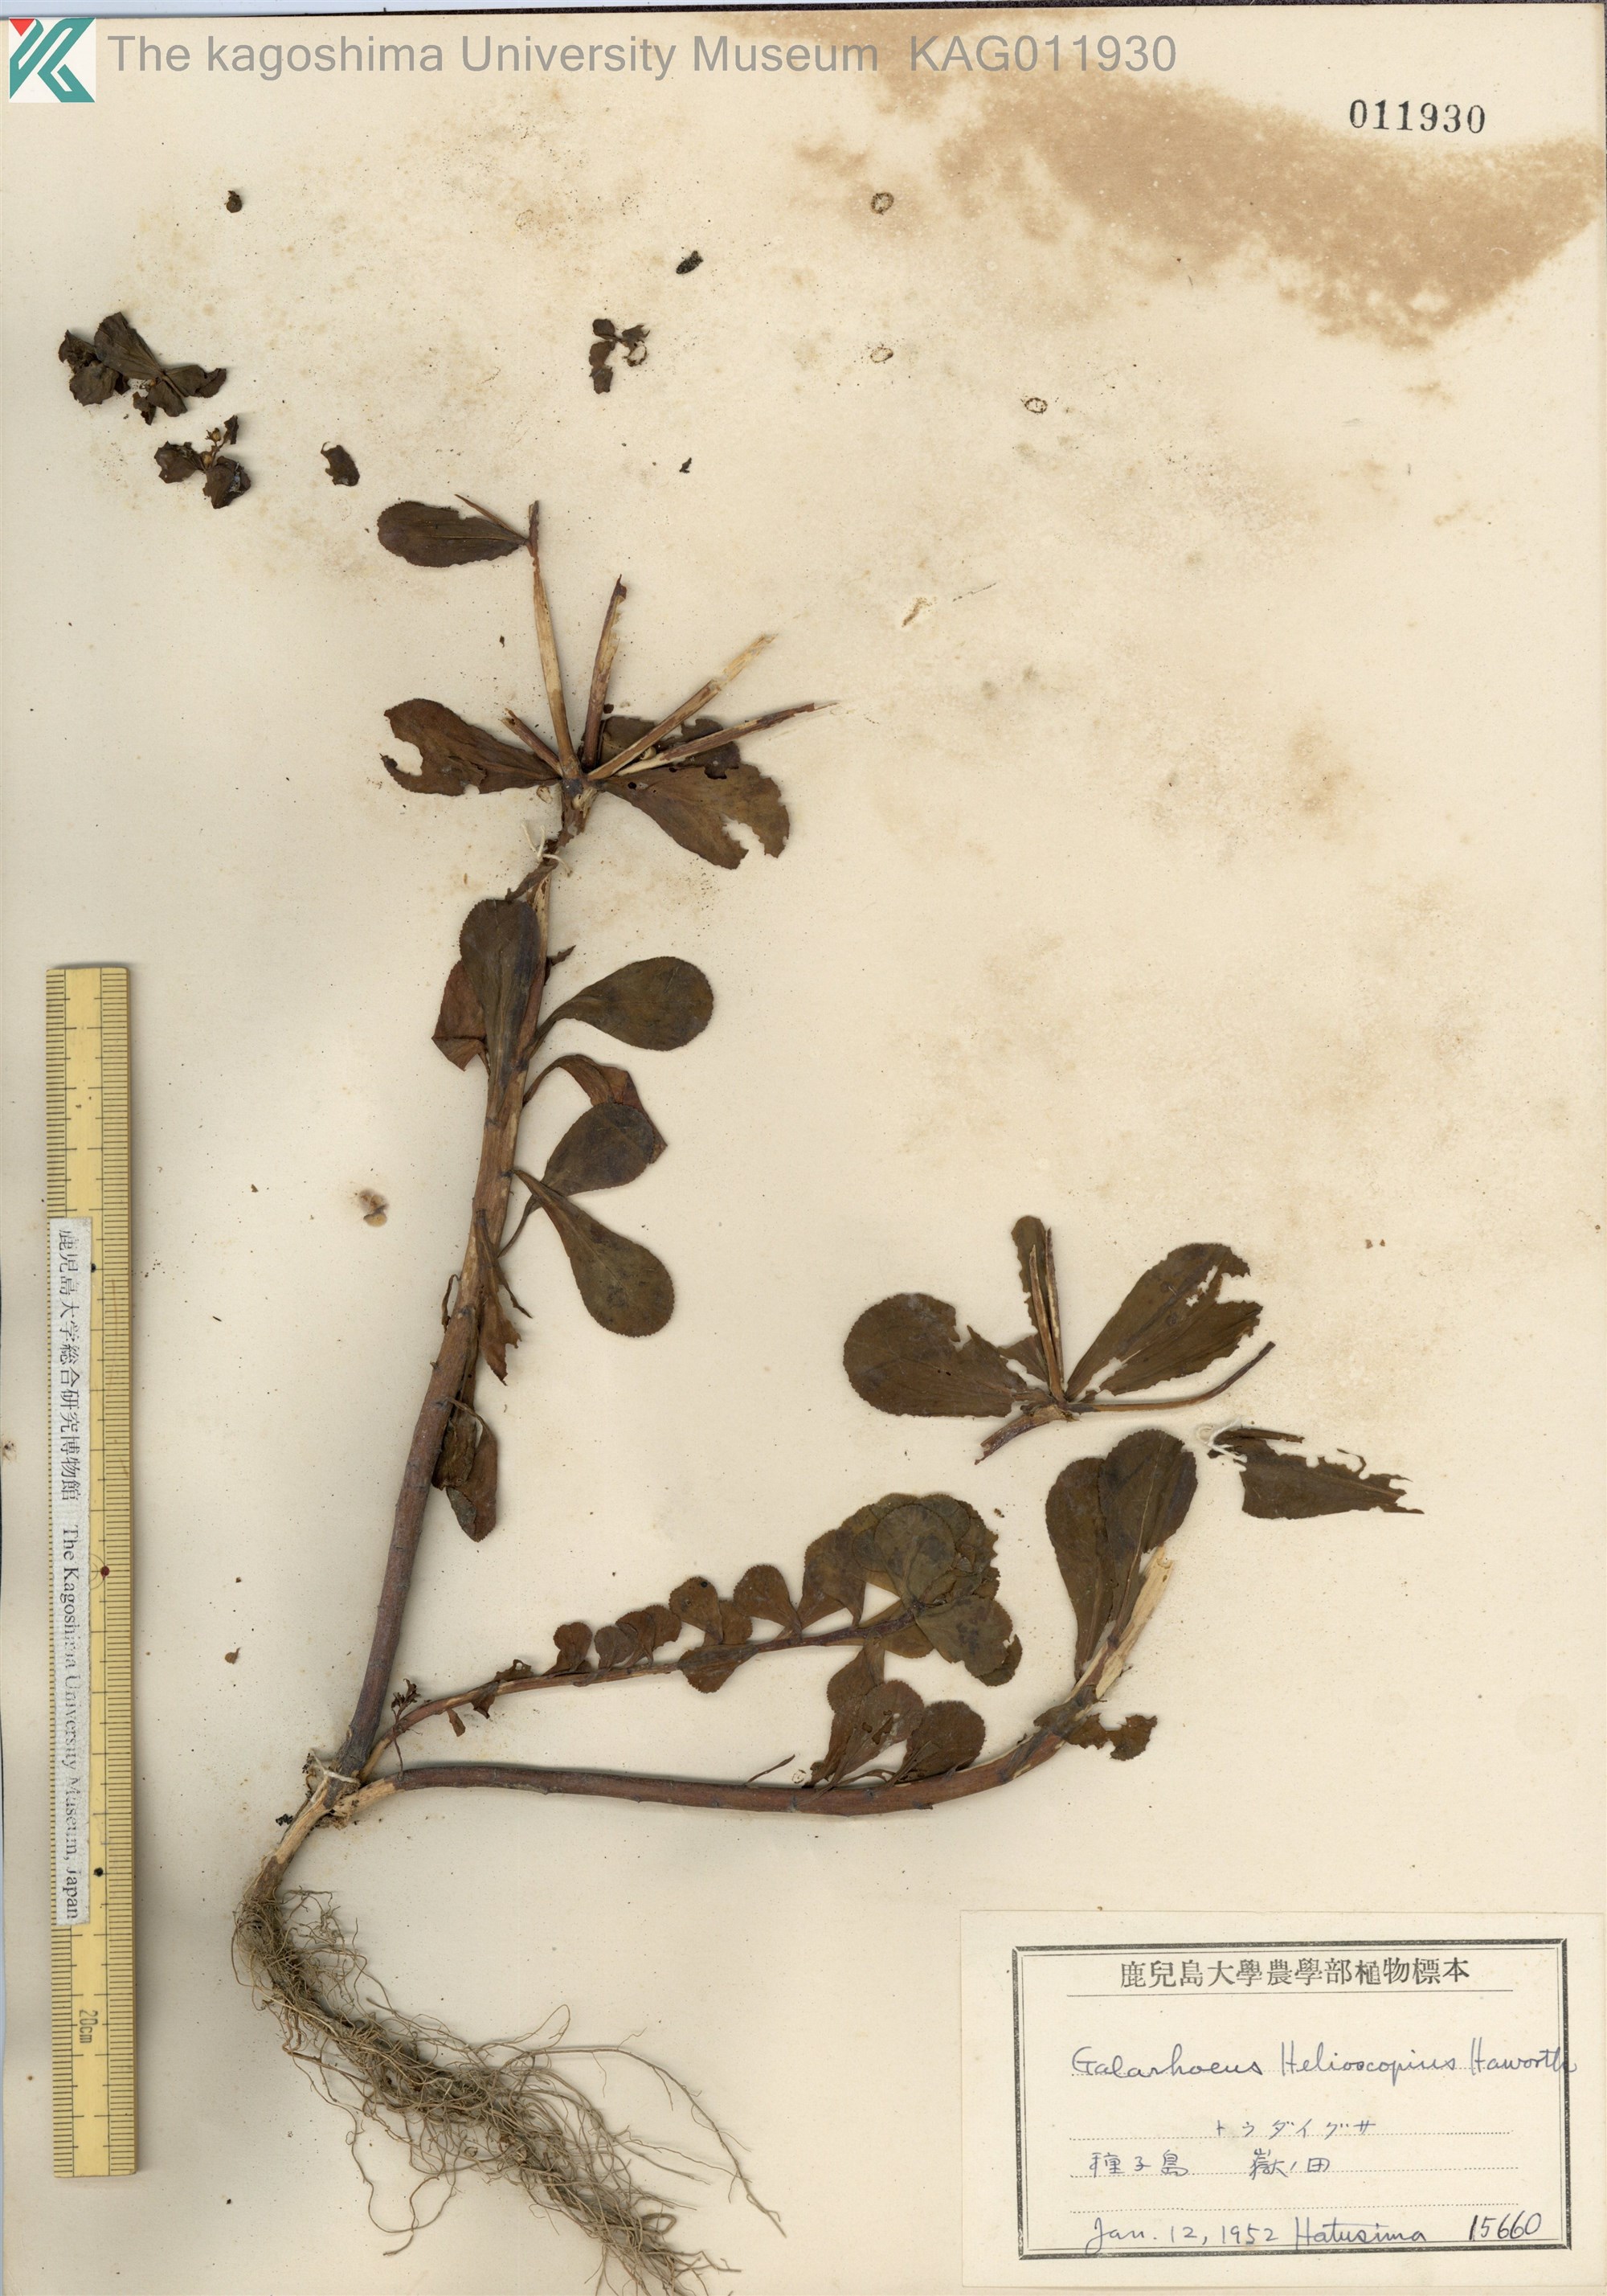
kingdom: Plantae
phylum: Tracheophyta
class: Magnoliopsida
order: Malpighiales
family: Euphorbiaceae
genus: Euphorbia
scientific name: Euphorbia helioscopia
